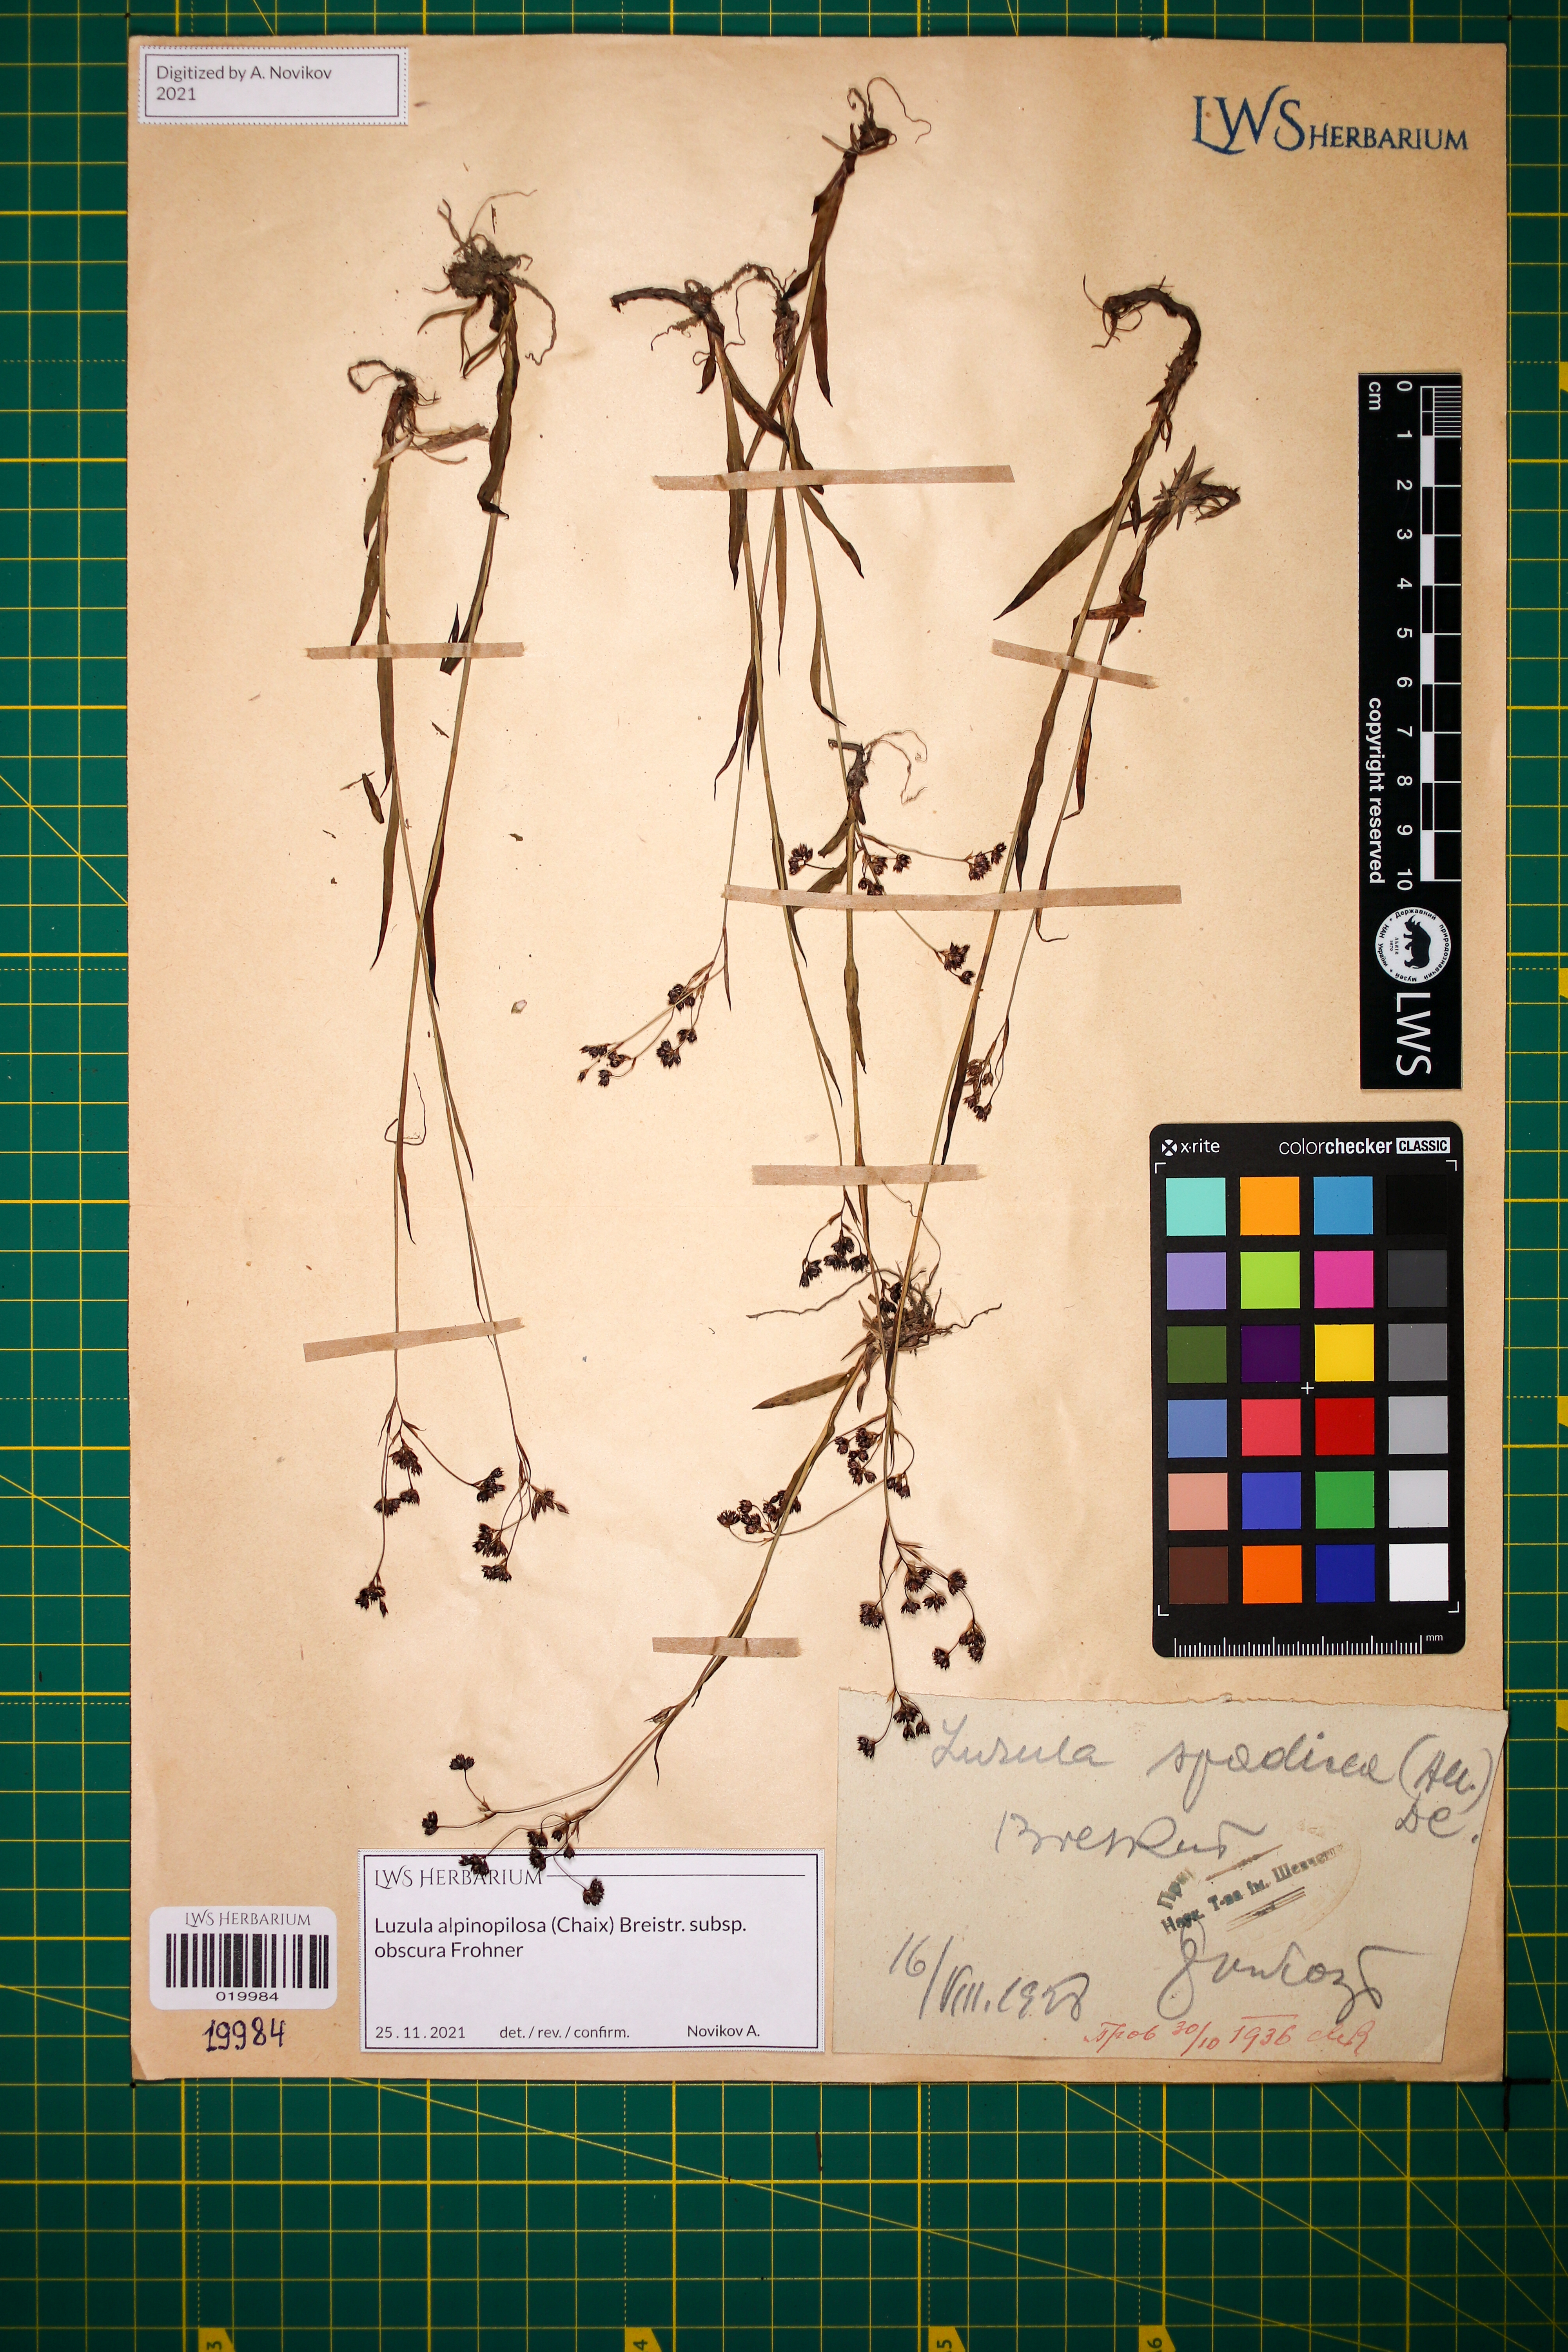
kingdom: Plantae
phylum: Tracheophyta
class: Liliopsida
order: Poales
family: Juncaceae
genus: Luzula
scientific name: Luzula alpinopilosa
